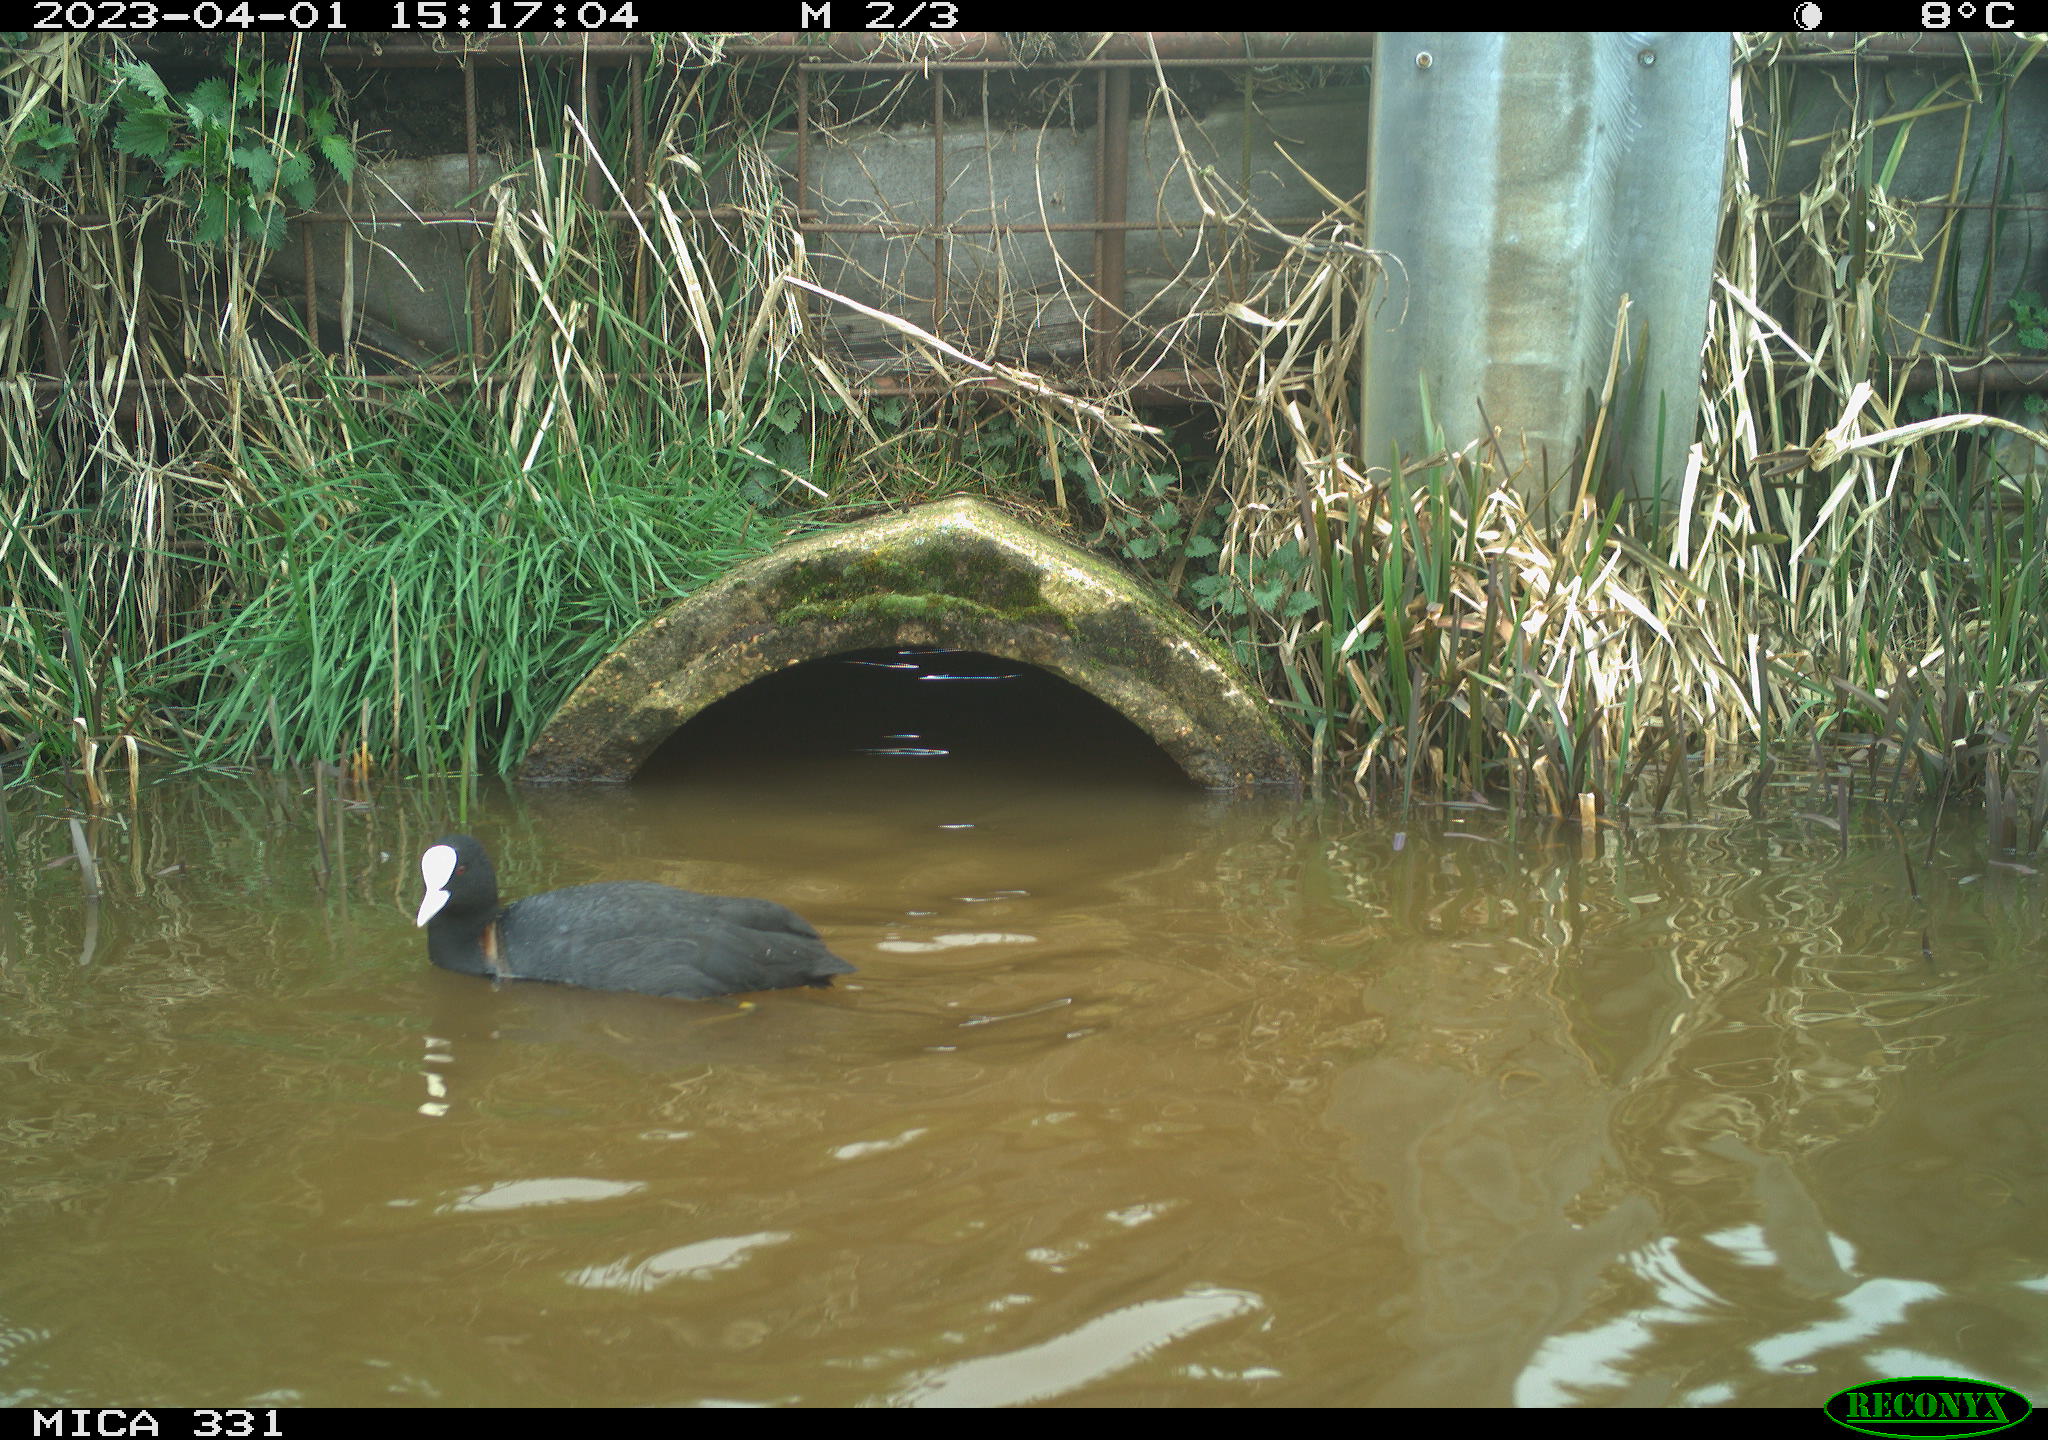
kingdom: Animalia
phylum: Chordata
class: Aves
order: Gruiformes
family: Rallidae
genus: Fulica
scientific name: Fulica atra
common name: Eurasian coot
